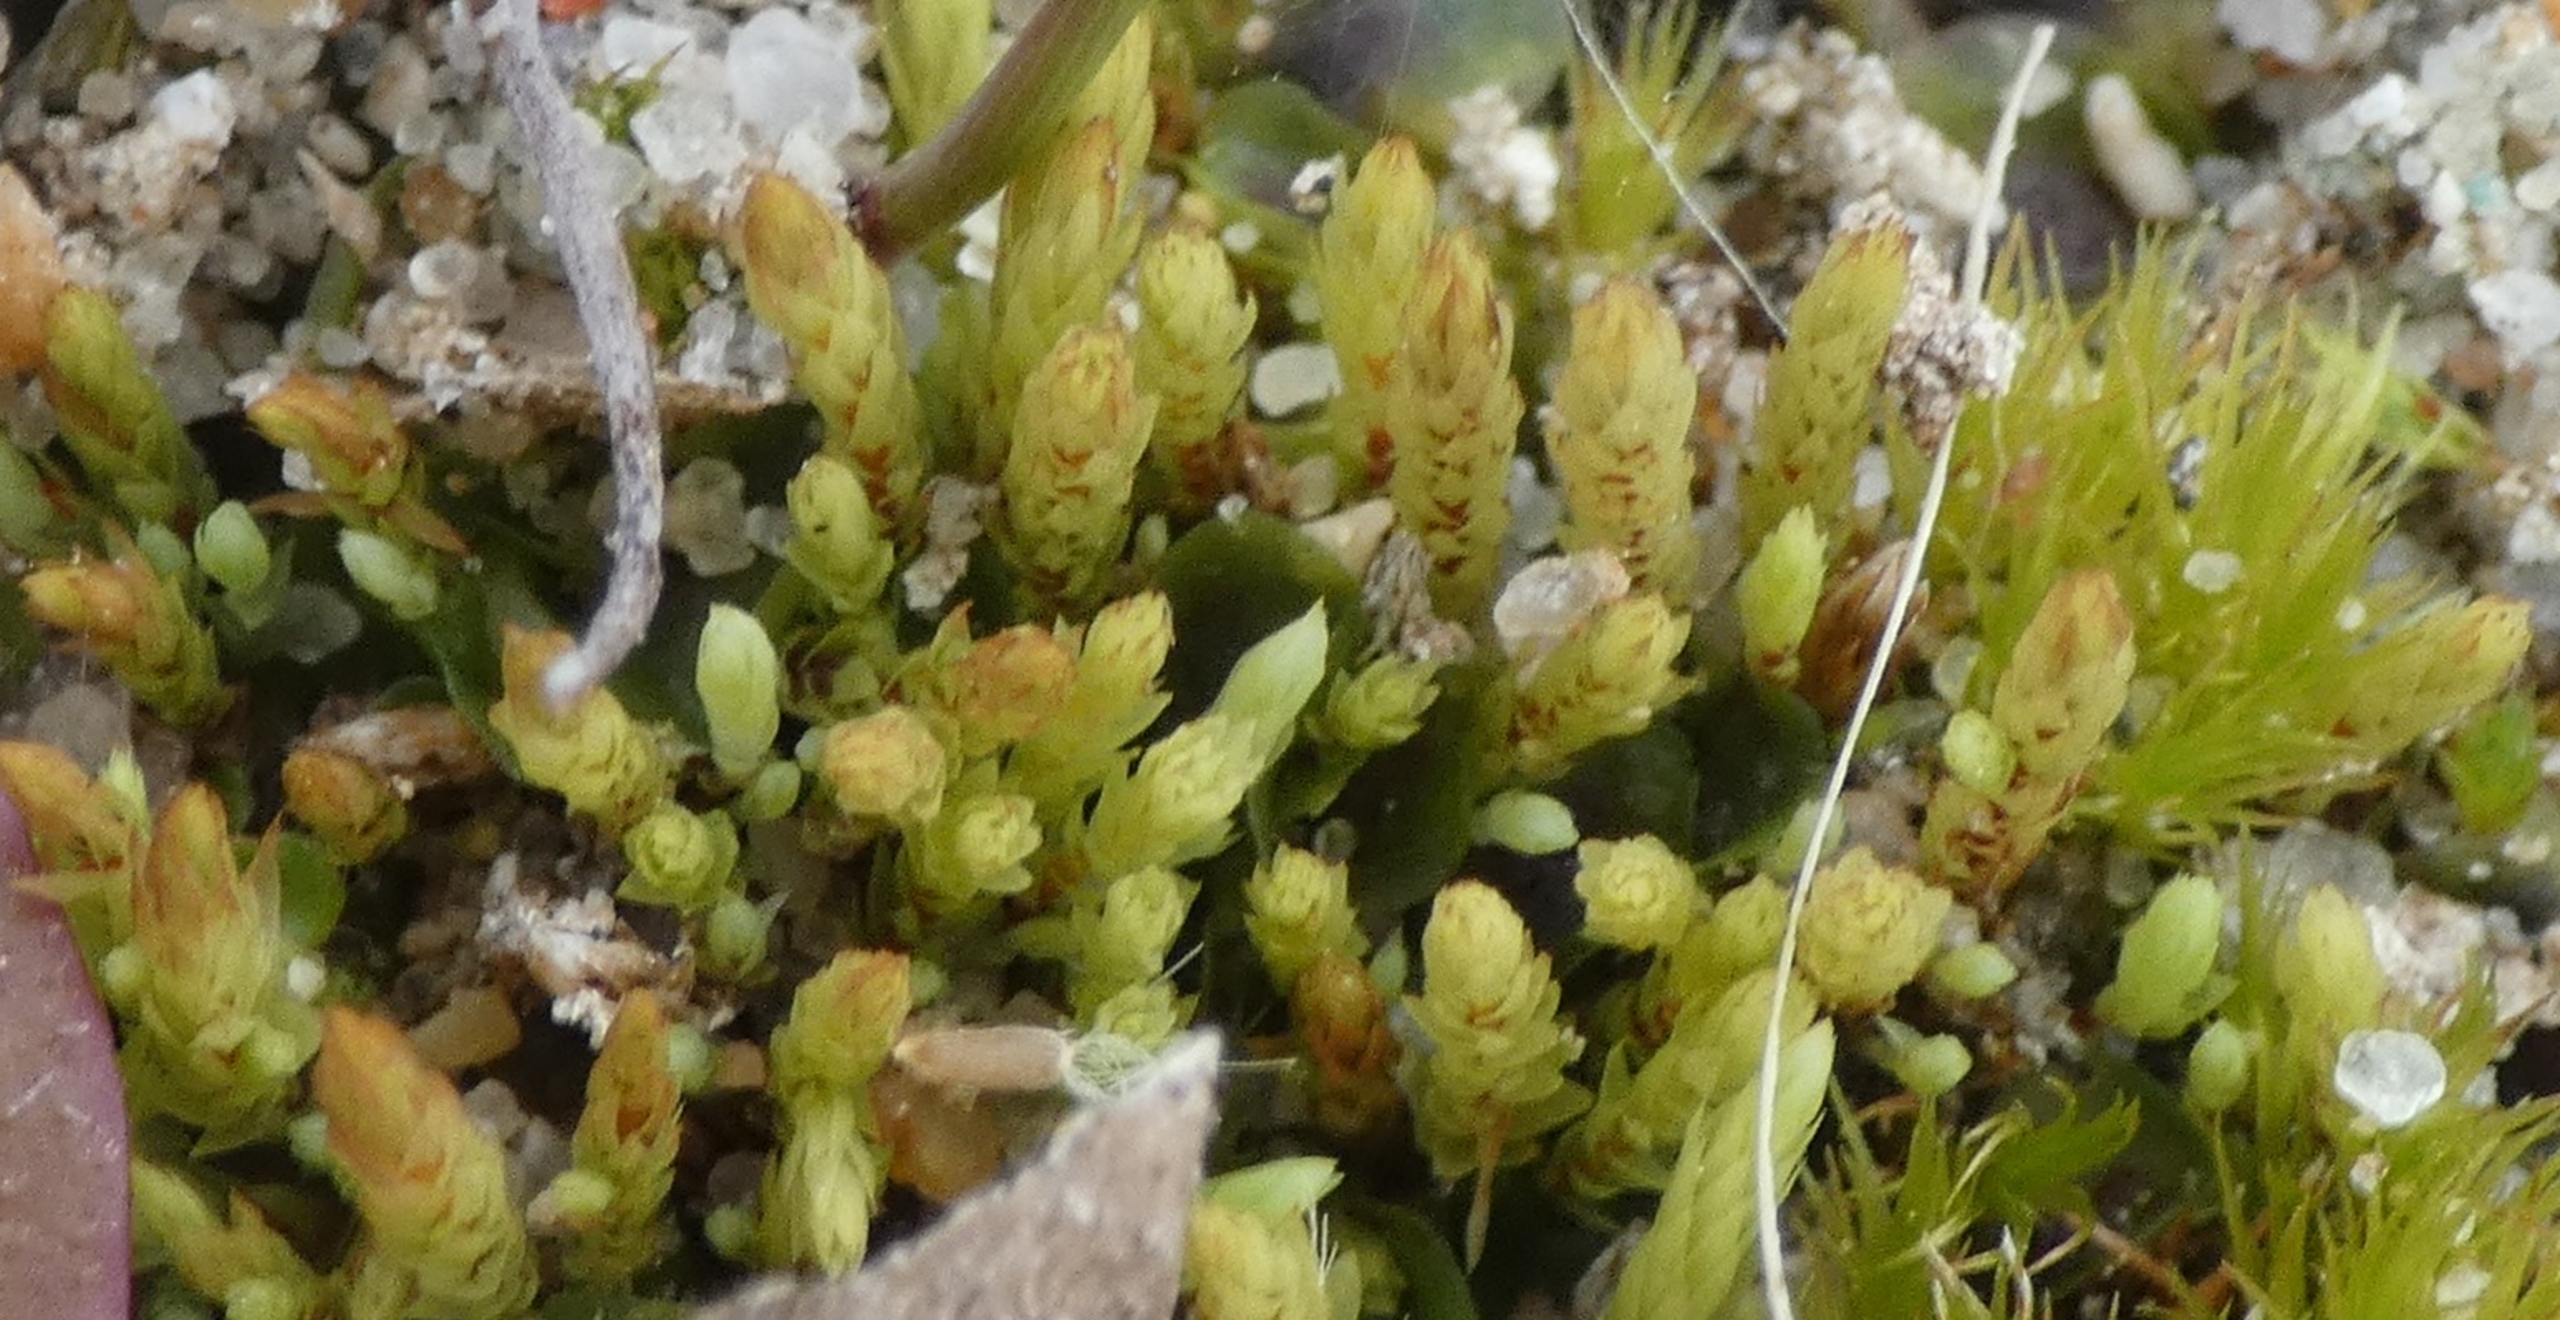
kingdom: Plantae
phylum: Bryophyta
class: Bryopsida
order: Bryales
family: Mniaceae
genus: Pohlia
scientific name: Pohlia wahlenbergii
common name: Lysegrøn voksmos
